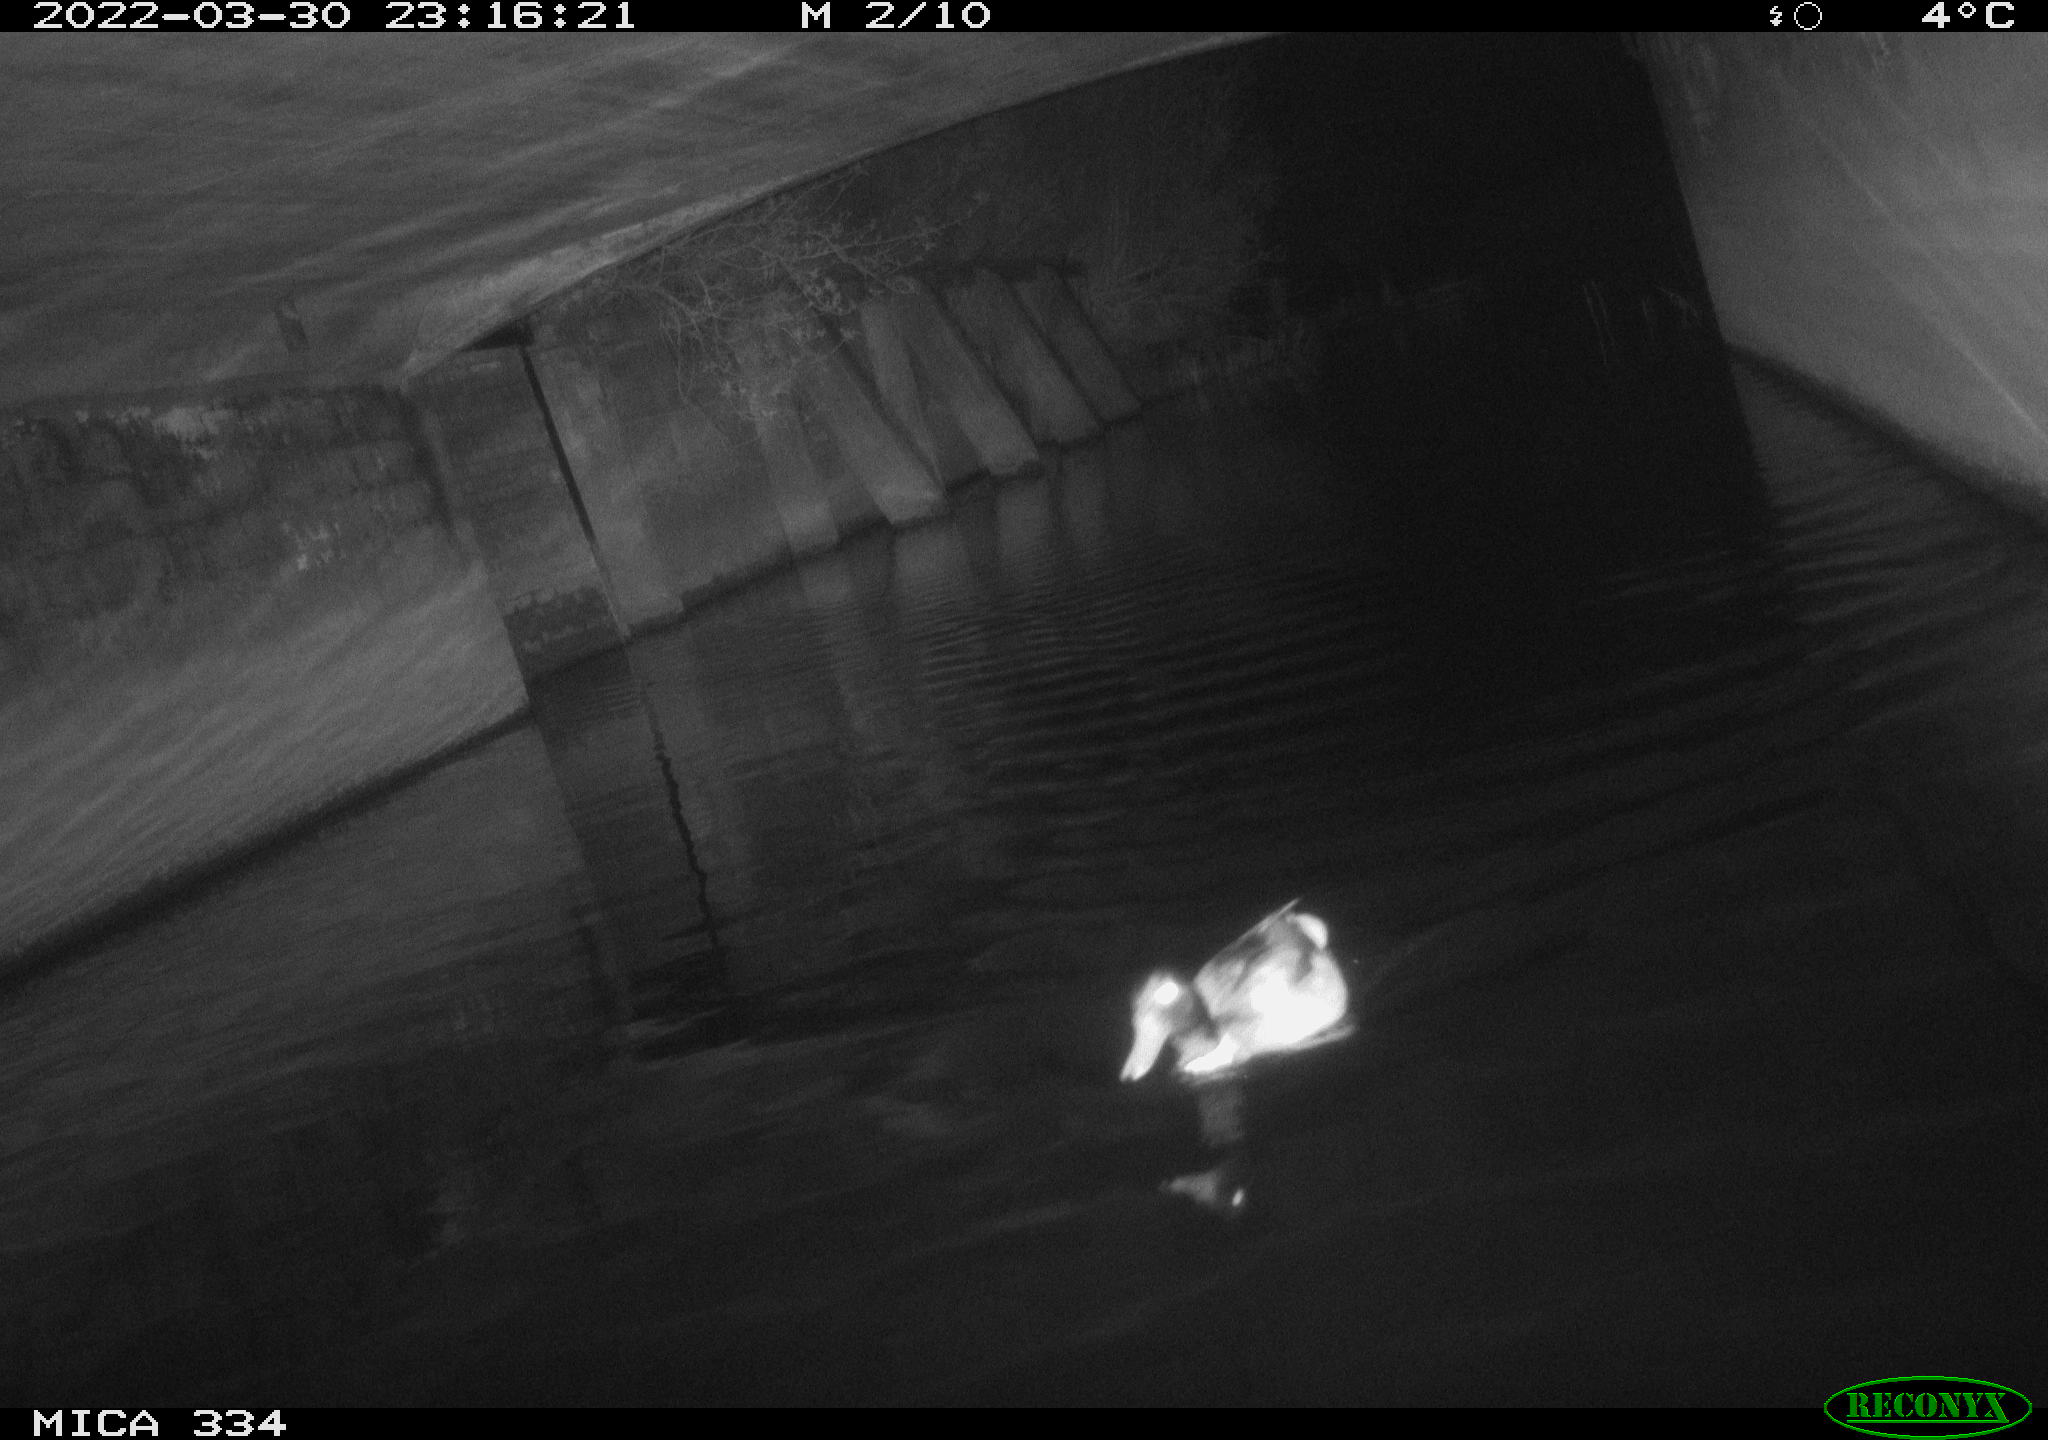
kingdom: Animalia
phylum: Chordata
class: Aves
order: Anseriformes
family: Anatidae
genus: Anas
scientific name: Anas platyrhynchos
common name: Mallard
